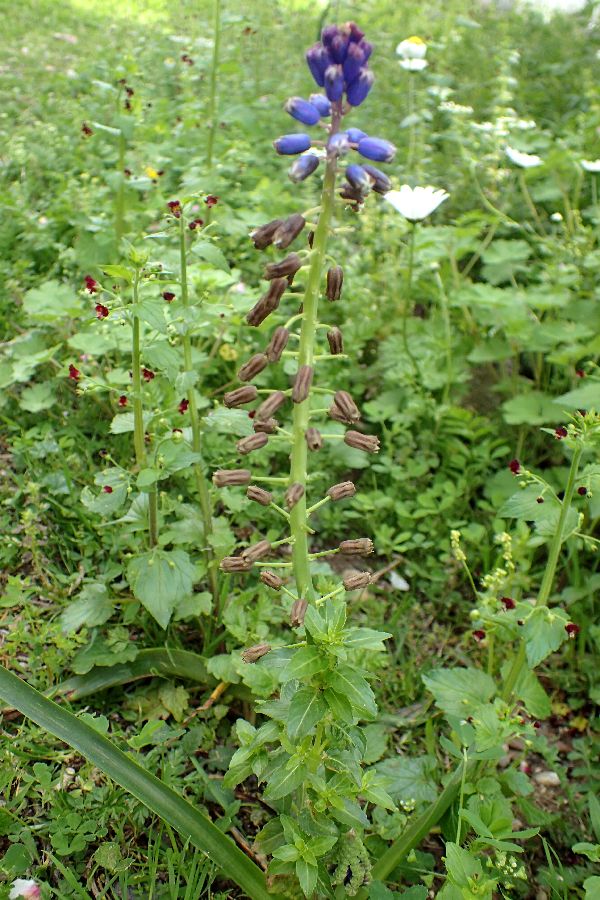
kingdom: Plantae
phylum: Tracheophyta
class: Liliopsida
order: Asparagales
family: Asparagaceae
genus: Bellevalia
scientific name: Bellevalia dubia
